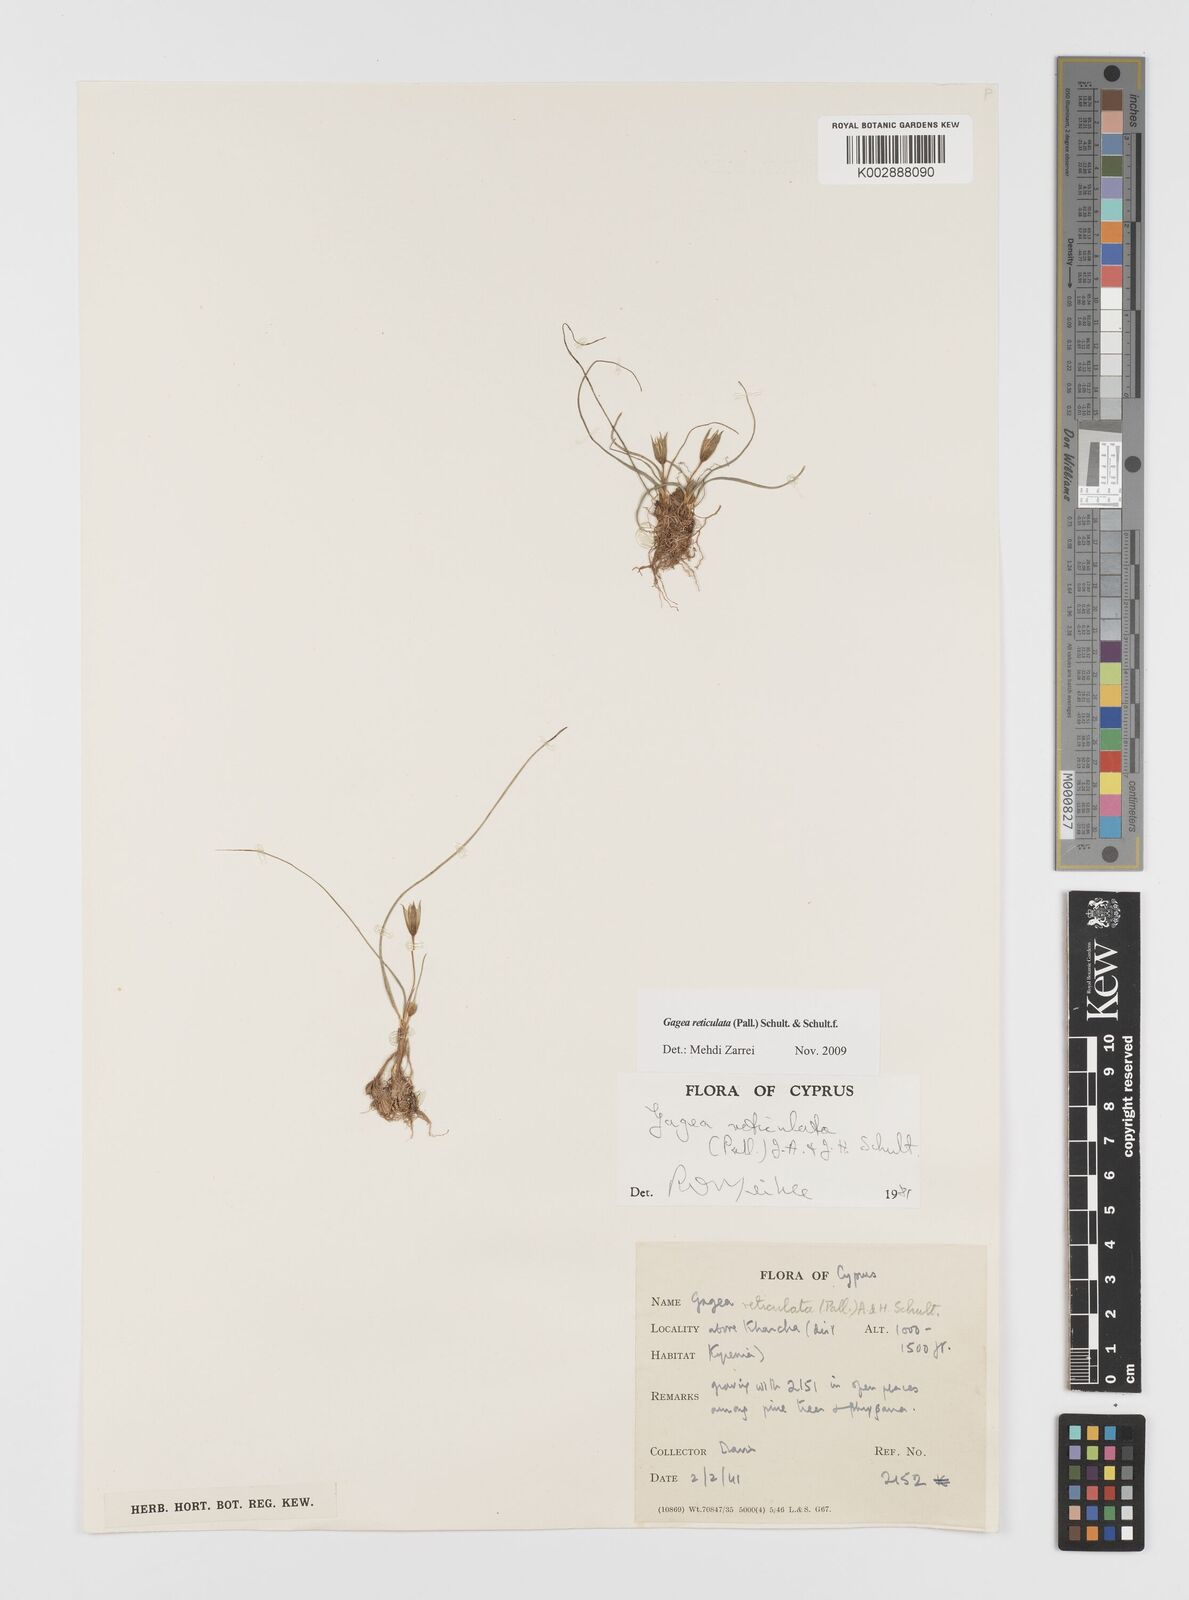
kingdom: Plantae
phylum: Tracheophyta
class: Liliopsida
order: Liliales
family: Liliaceae
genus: Gagea
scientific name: Gagea reticulata
